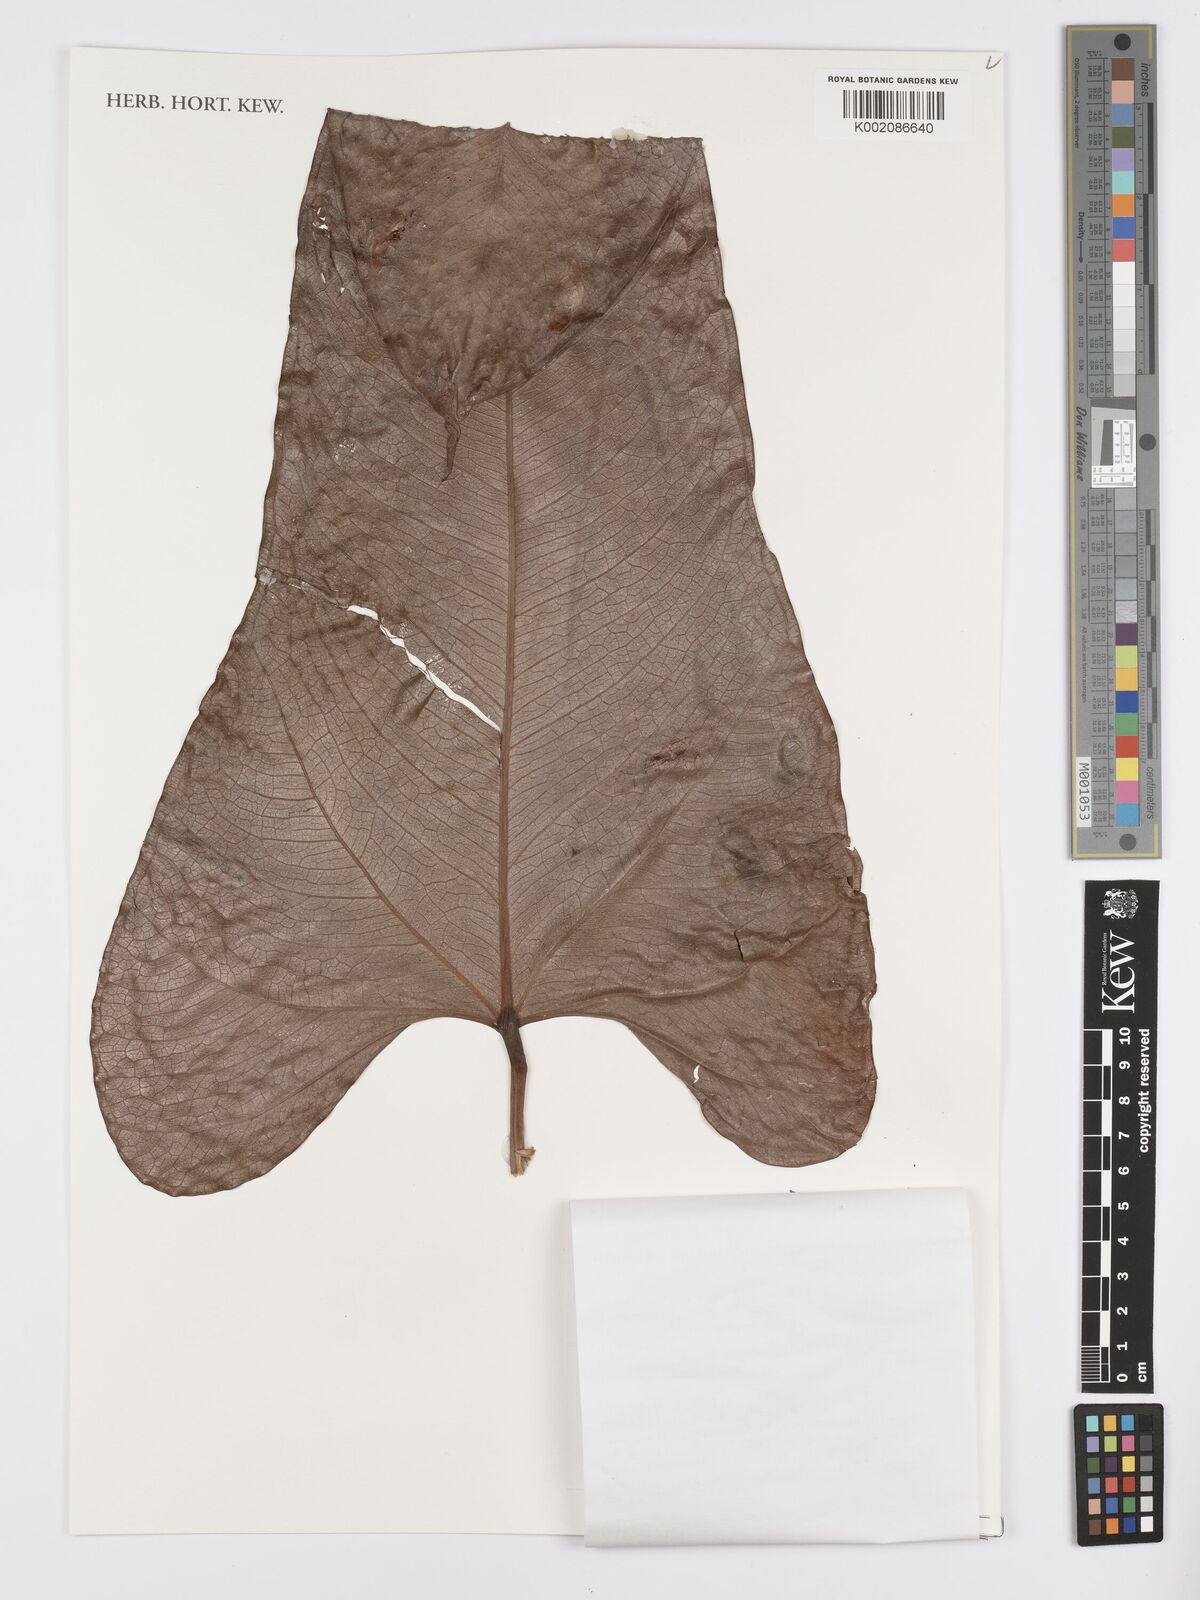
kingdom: Plantae
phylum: Tracheophyta
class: Liliopsida
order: Alismatales
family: Araceae
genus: Anthurium
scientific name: Anthurium obtusilobum
